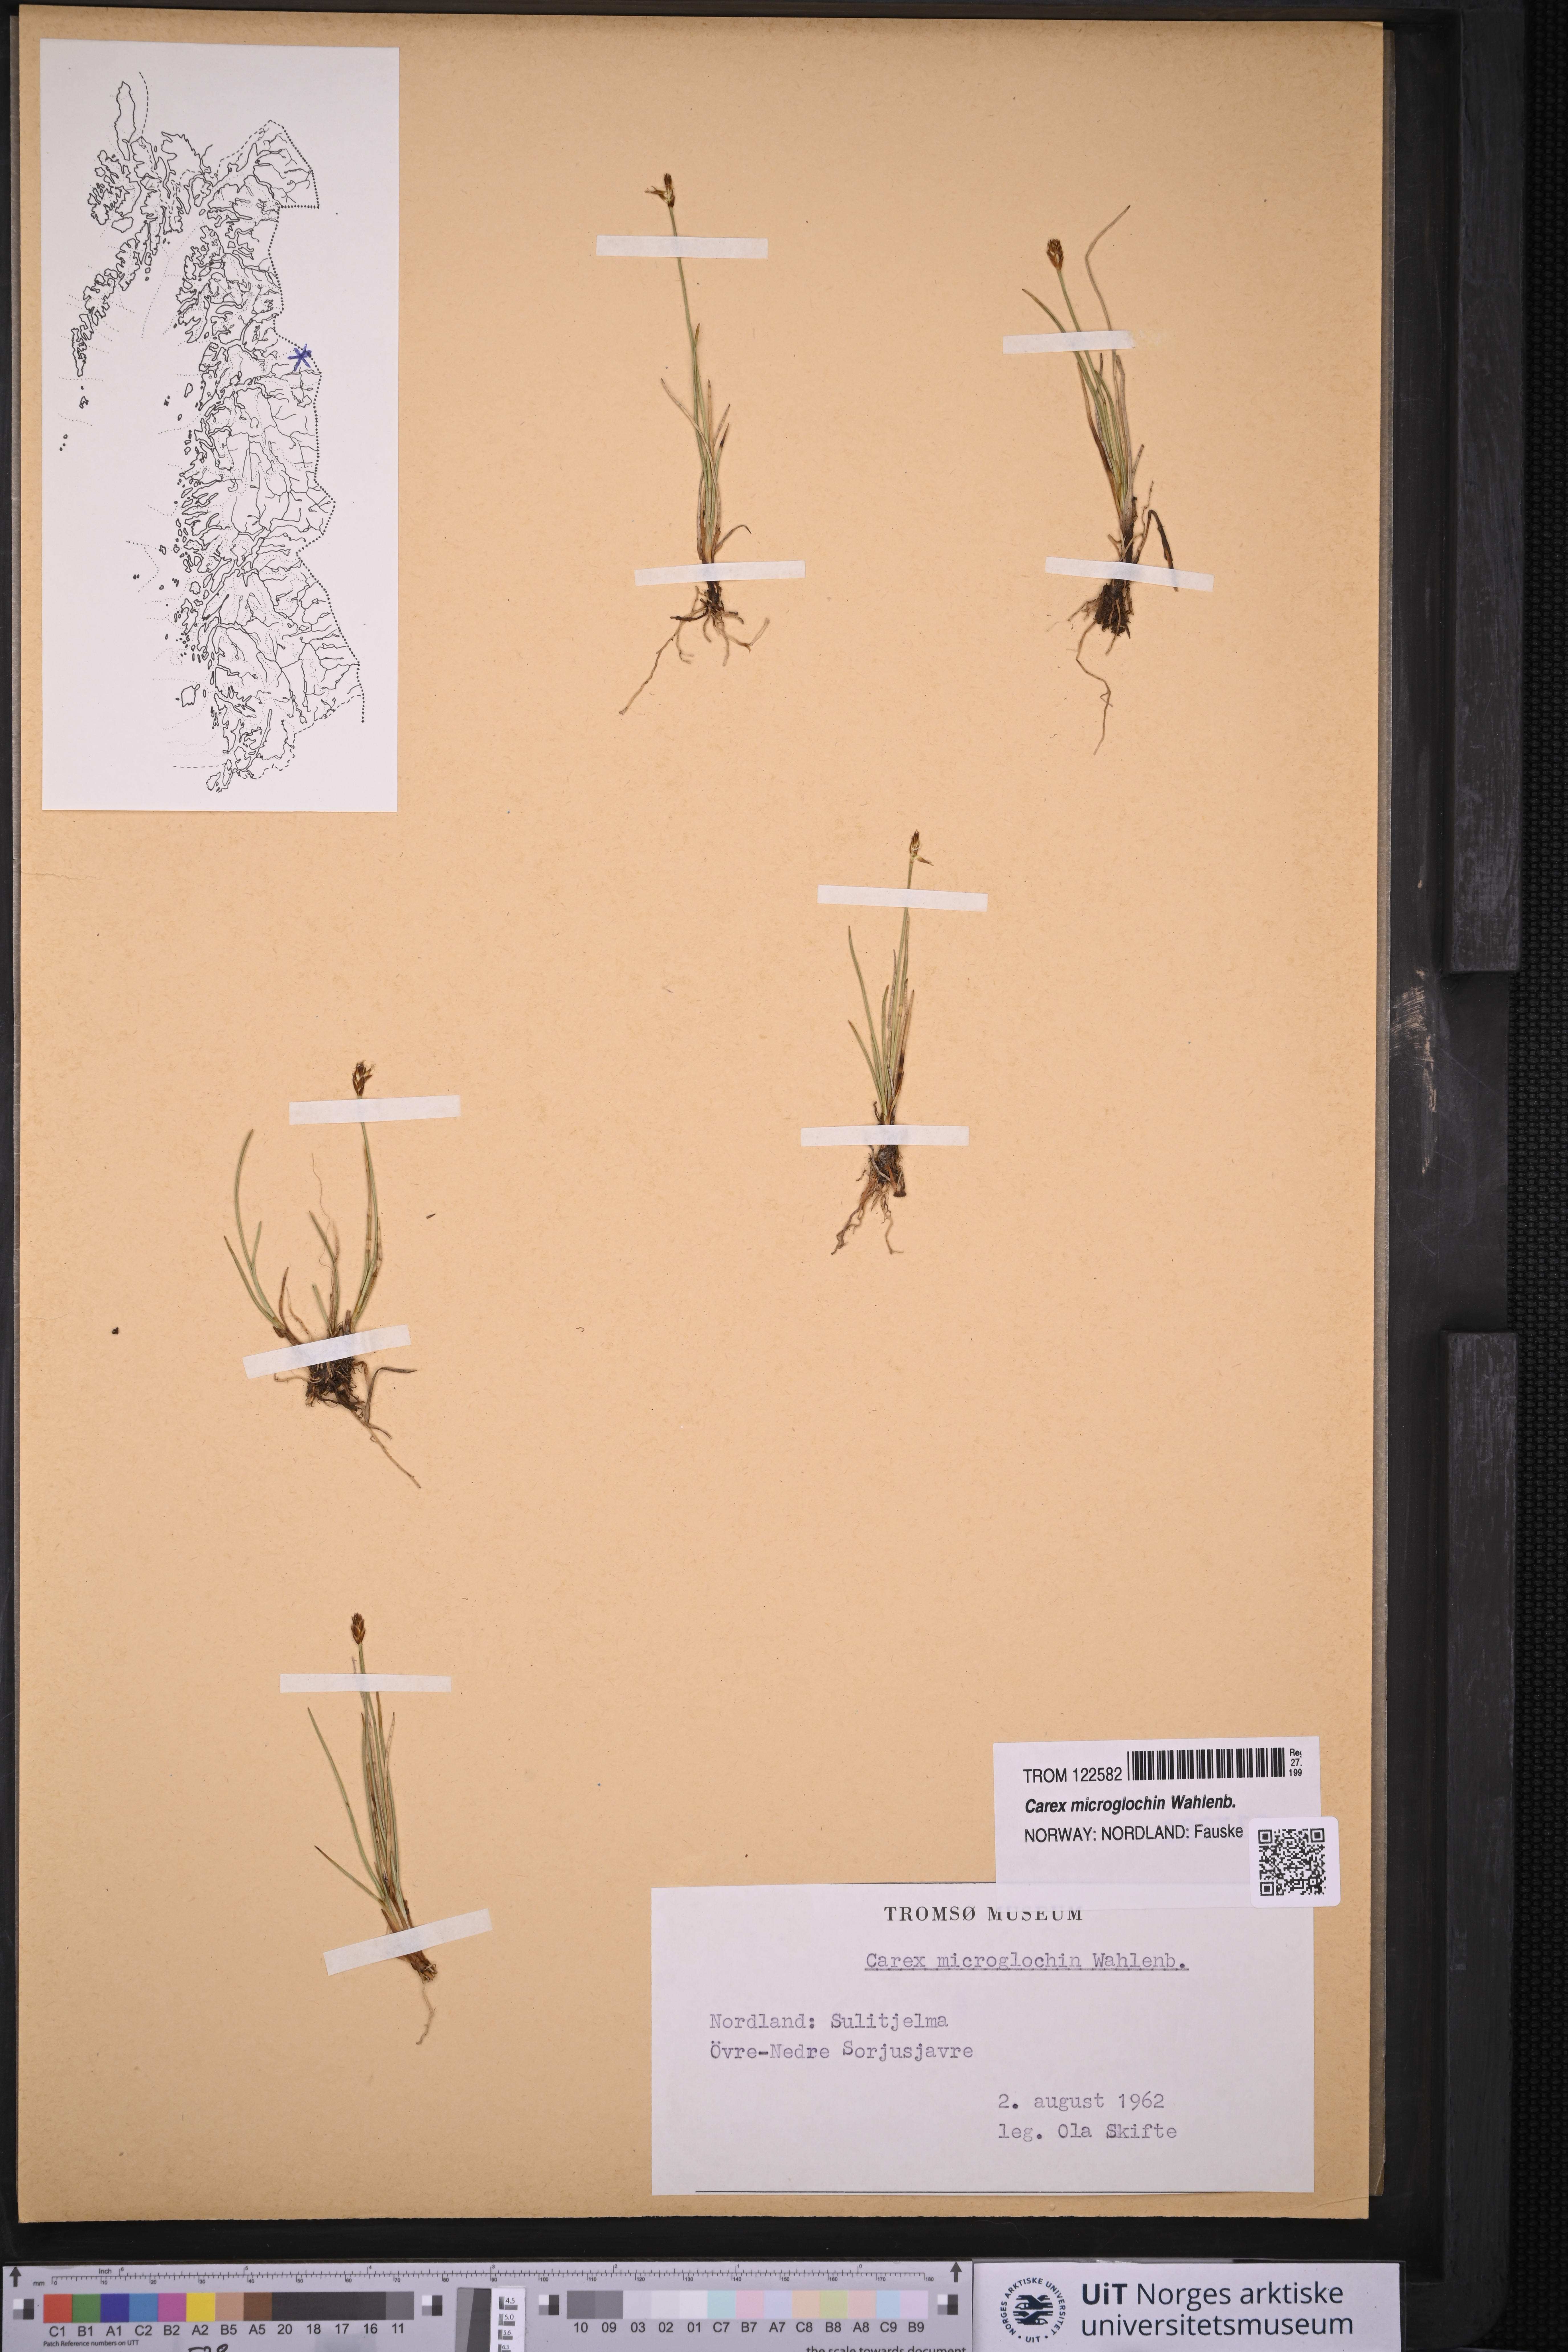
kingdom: Plantae
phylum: Tracheophyta
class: Liliopsida
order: Poales
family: Cyperaceae
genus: Carex
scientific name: Carex microglochin
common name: Bristle sedge
